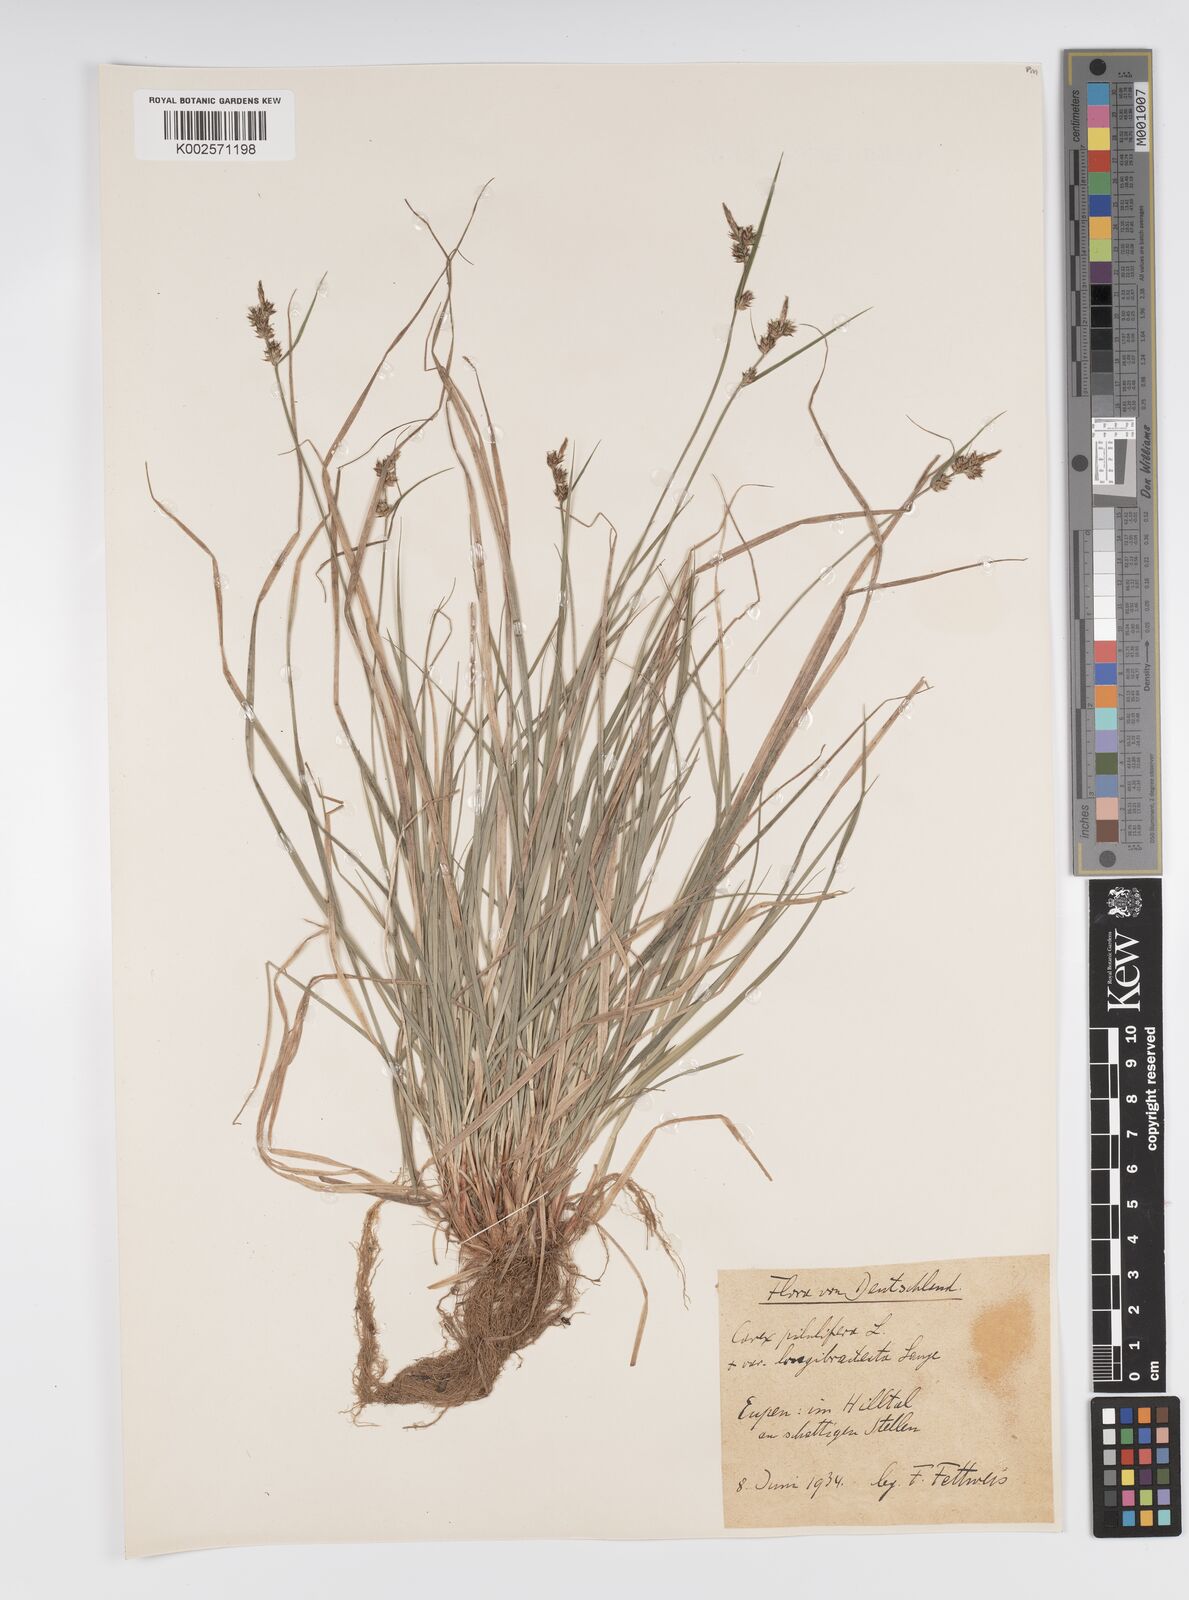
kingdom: Plantae
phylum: Tracheophyta
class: Liliopsida
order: Poales
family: Cyperaceae
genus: Carex
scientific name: Carex pilulifera
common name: Pill sedge
